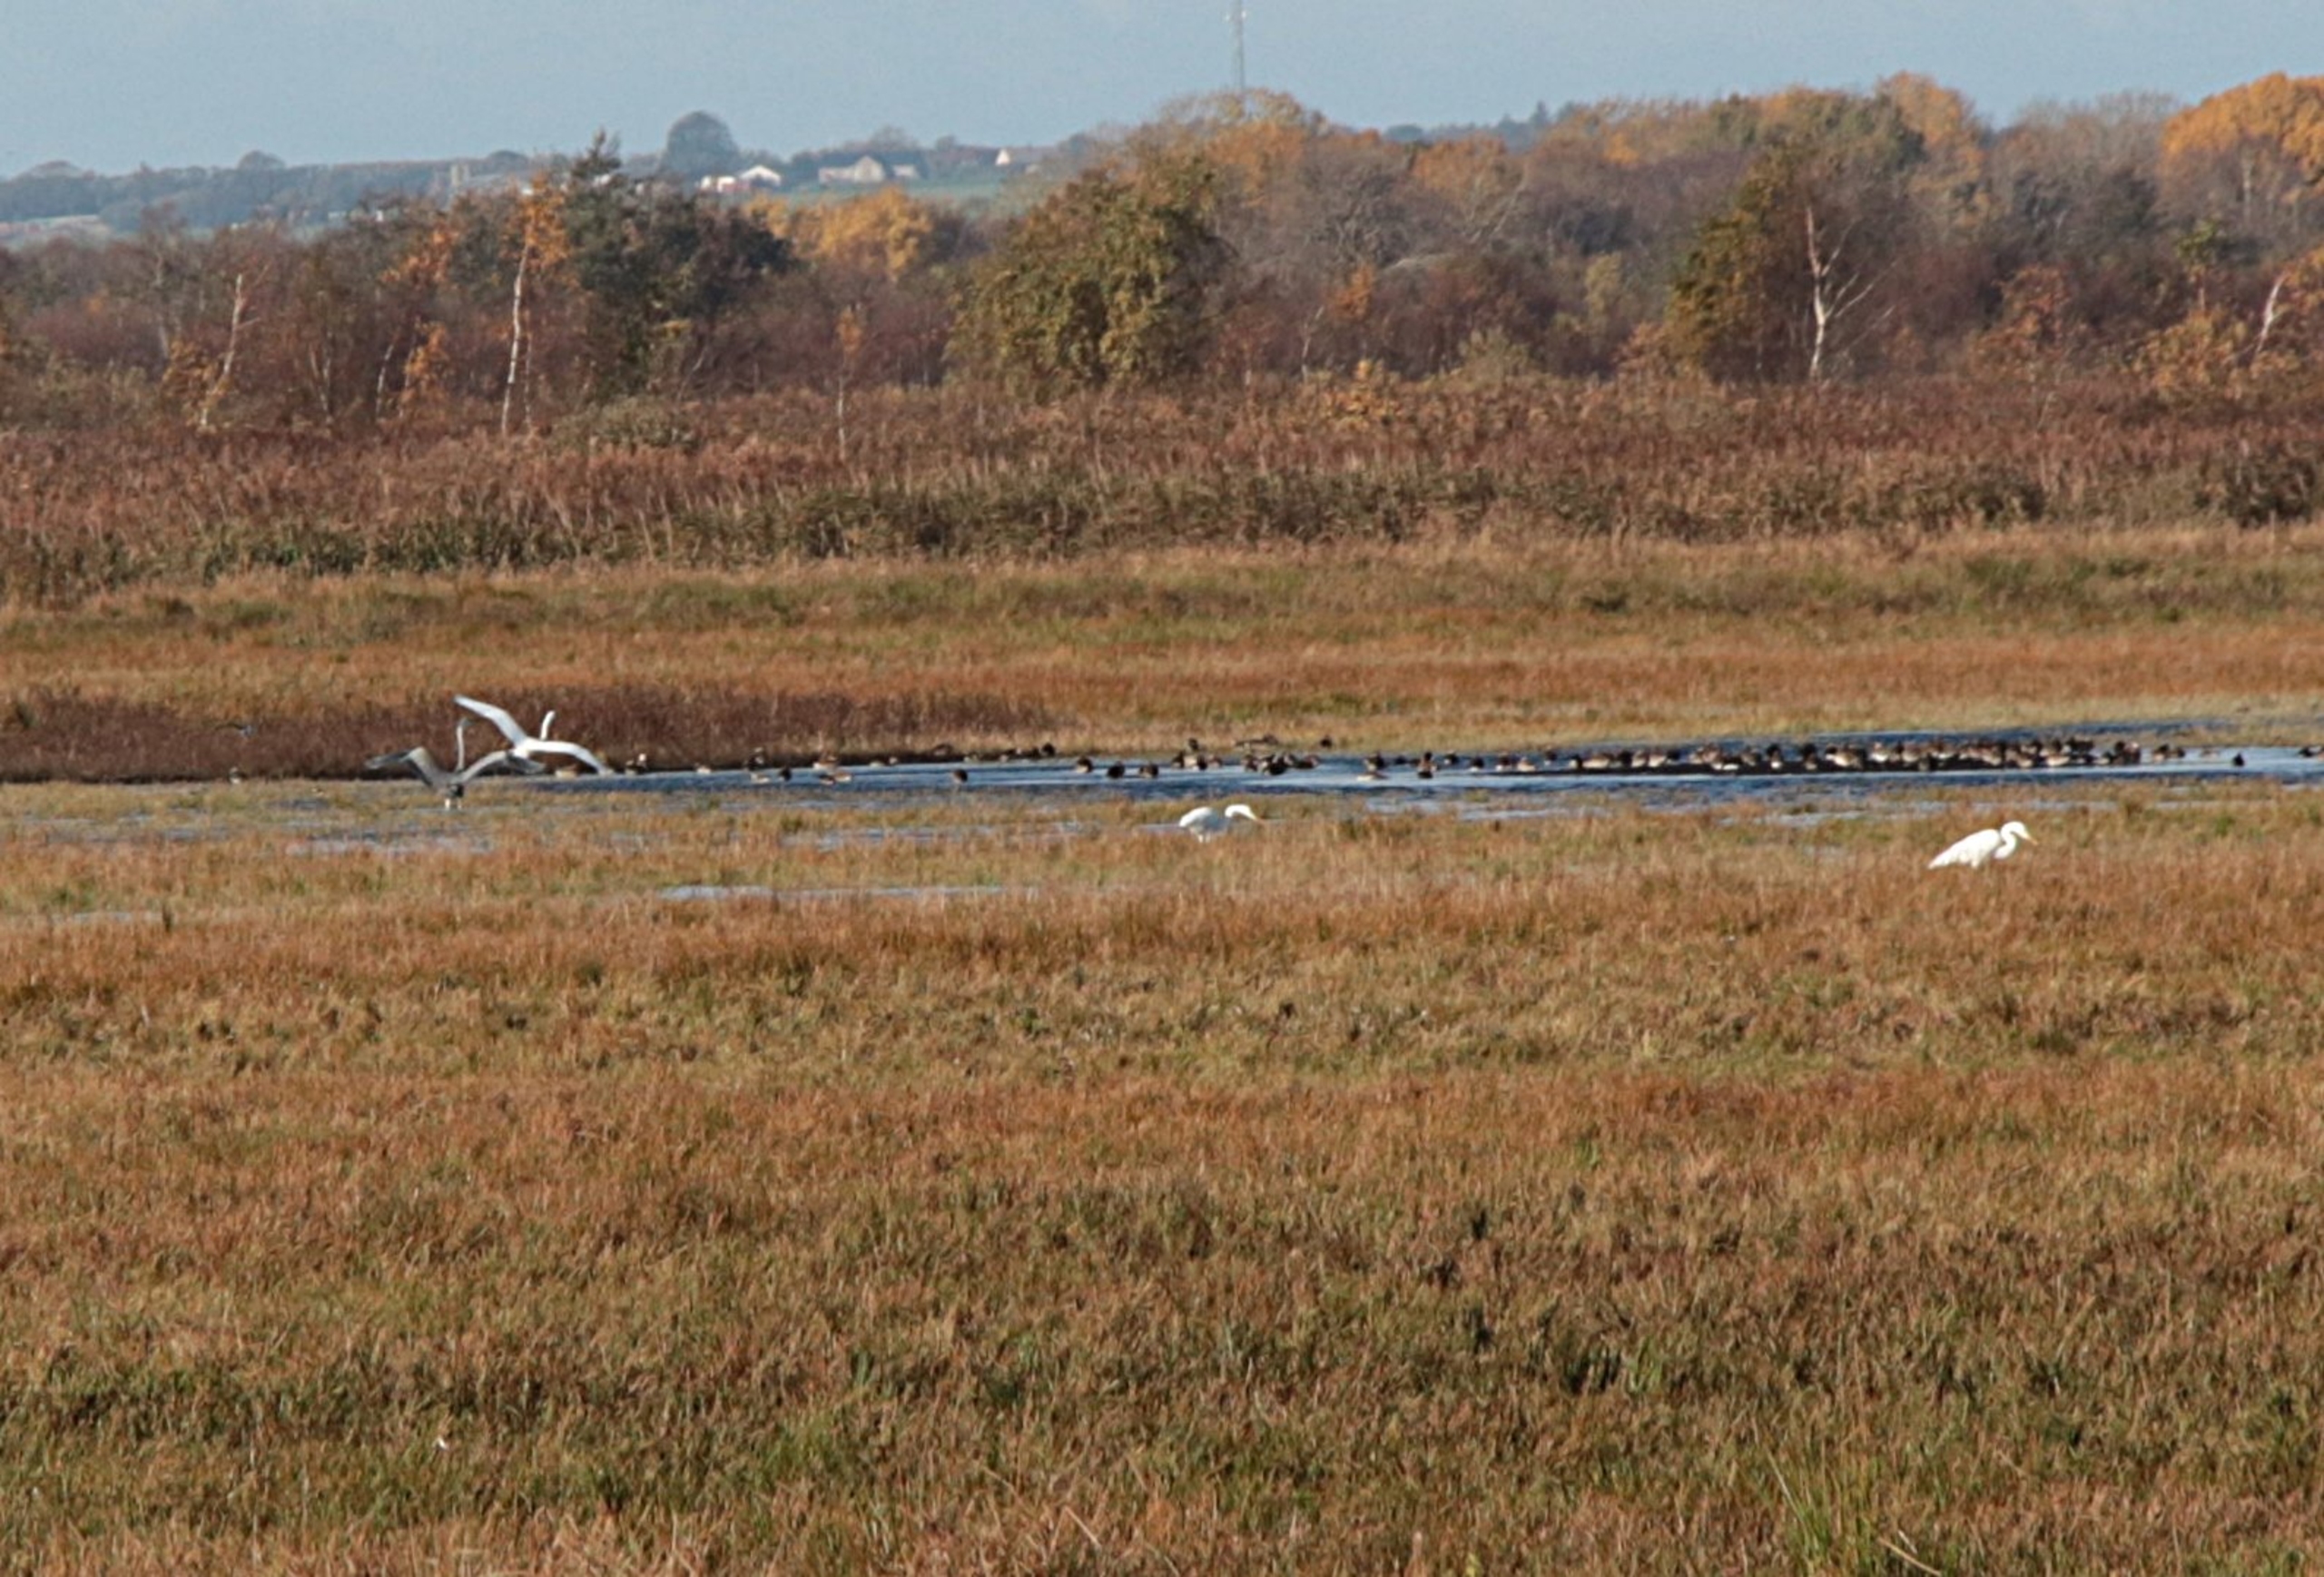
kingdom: Animalia
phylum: Chordata
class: Aves
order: Pelecaniformes
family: Ardeidae
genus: Ardea
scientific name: Ardea alba
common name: Sølvhejre
